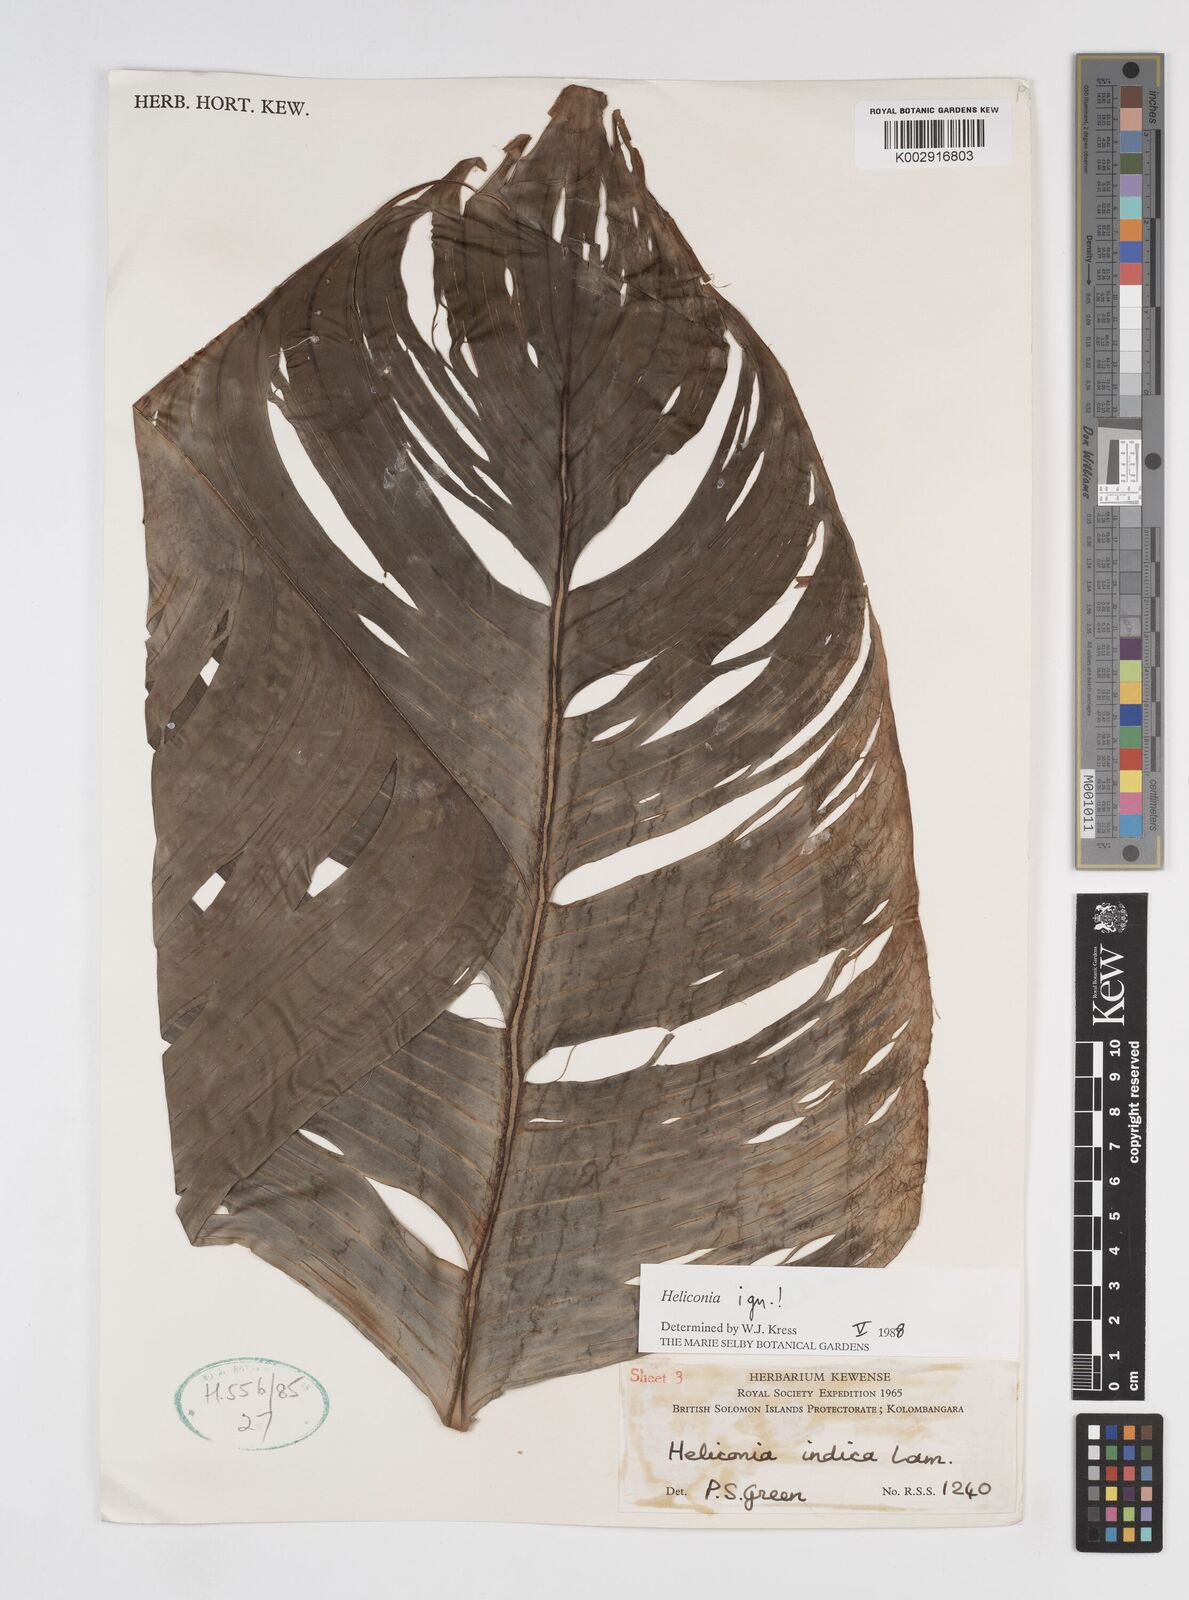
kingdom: Plantae
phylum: Tracheophyta
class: Liliopsida
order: Zingiberales
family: Heliconiaceae
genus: Heliconia
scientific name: Heliconia
